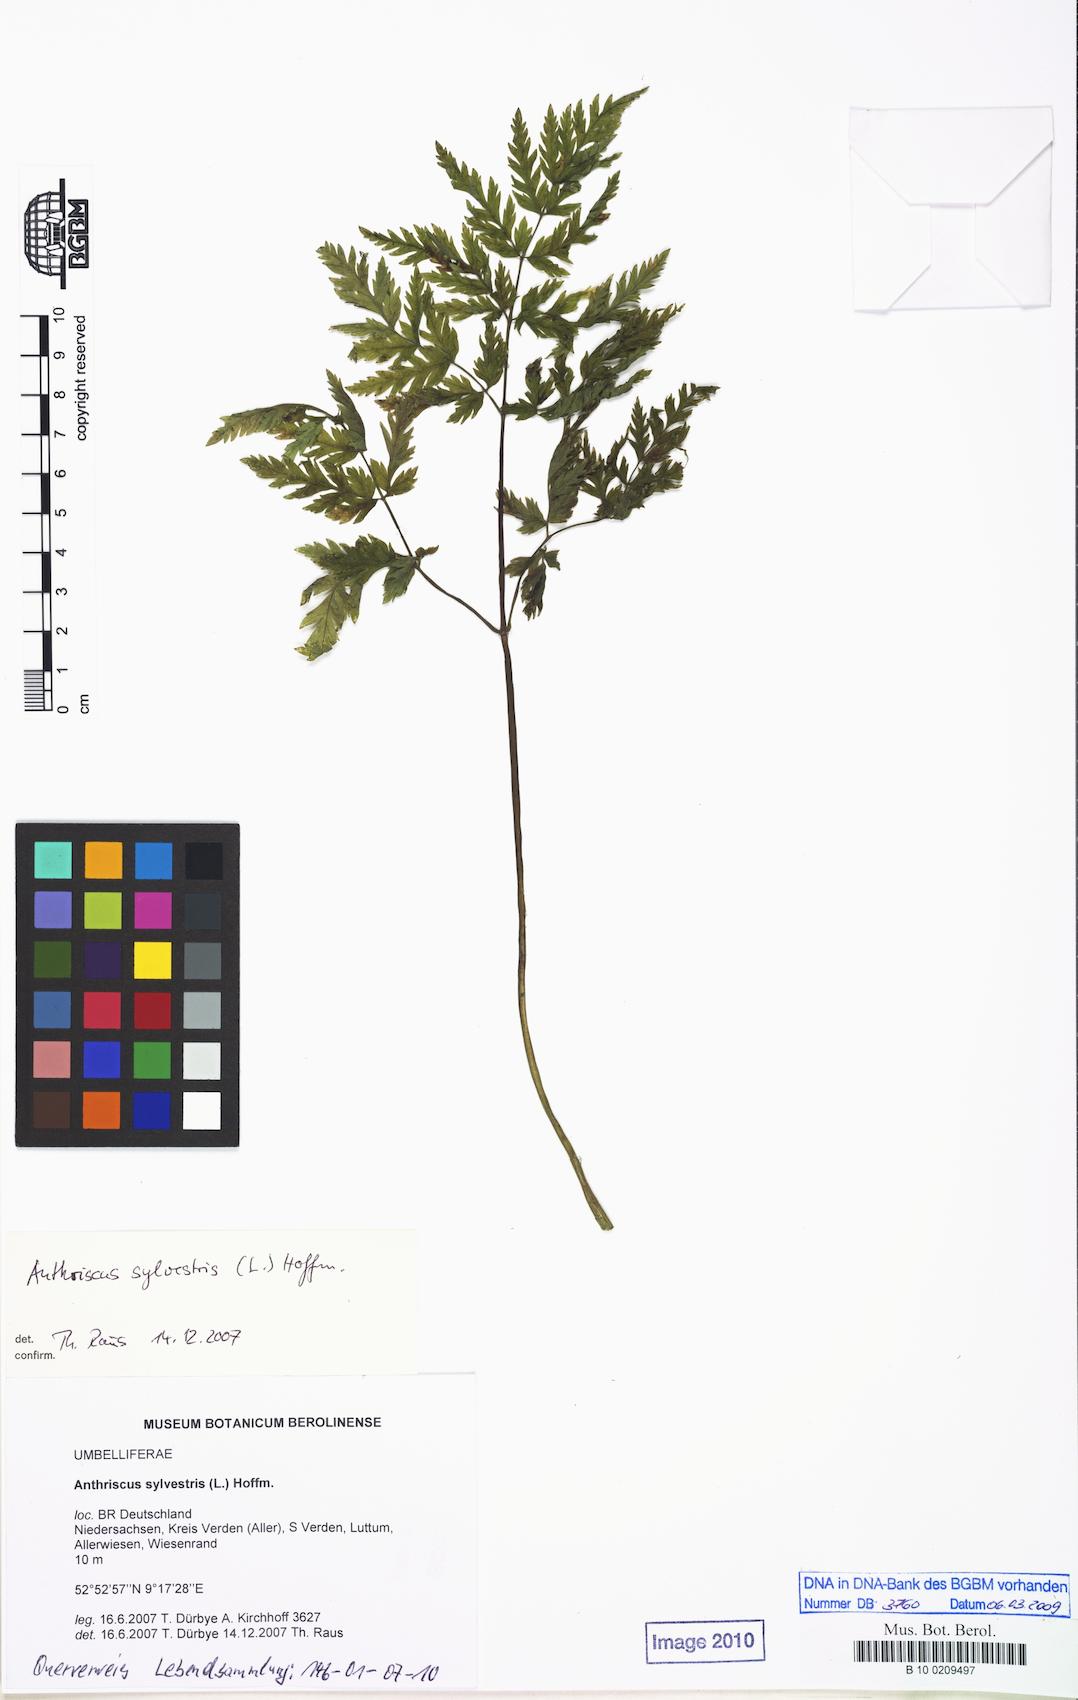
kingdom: Plantae
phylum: Tracheophyta
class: Magnoliopsida
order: Apiales
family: Apiaceae
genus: Anthriscus
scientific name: Anthriscus sylvestris
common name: Cow parsley
